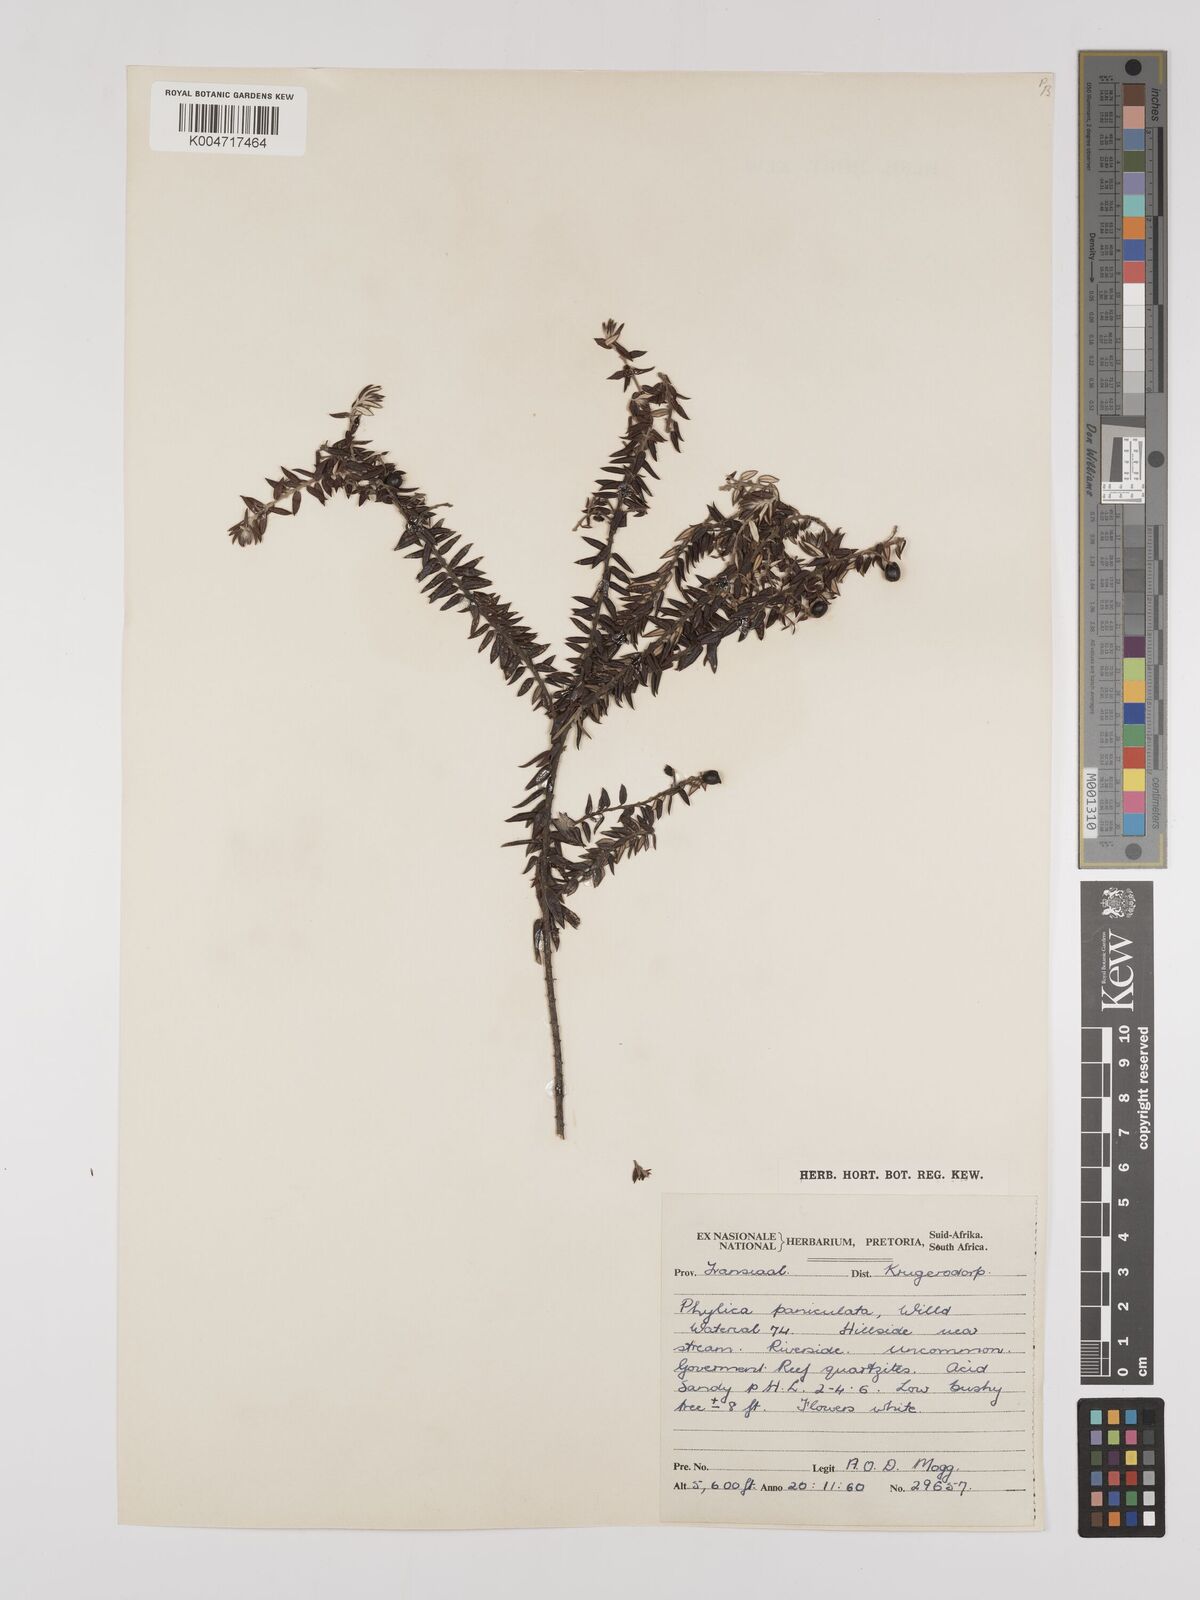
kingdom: Plantae
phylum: Tracheophyta
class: Magnoliopsida
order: Rosales
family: Rhamnaceae
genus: Phylica
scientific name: Phylica paniculata
